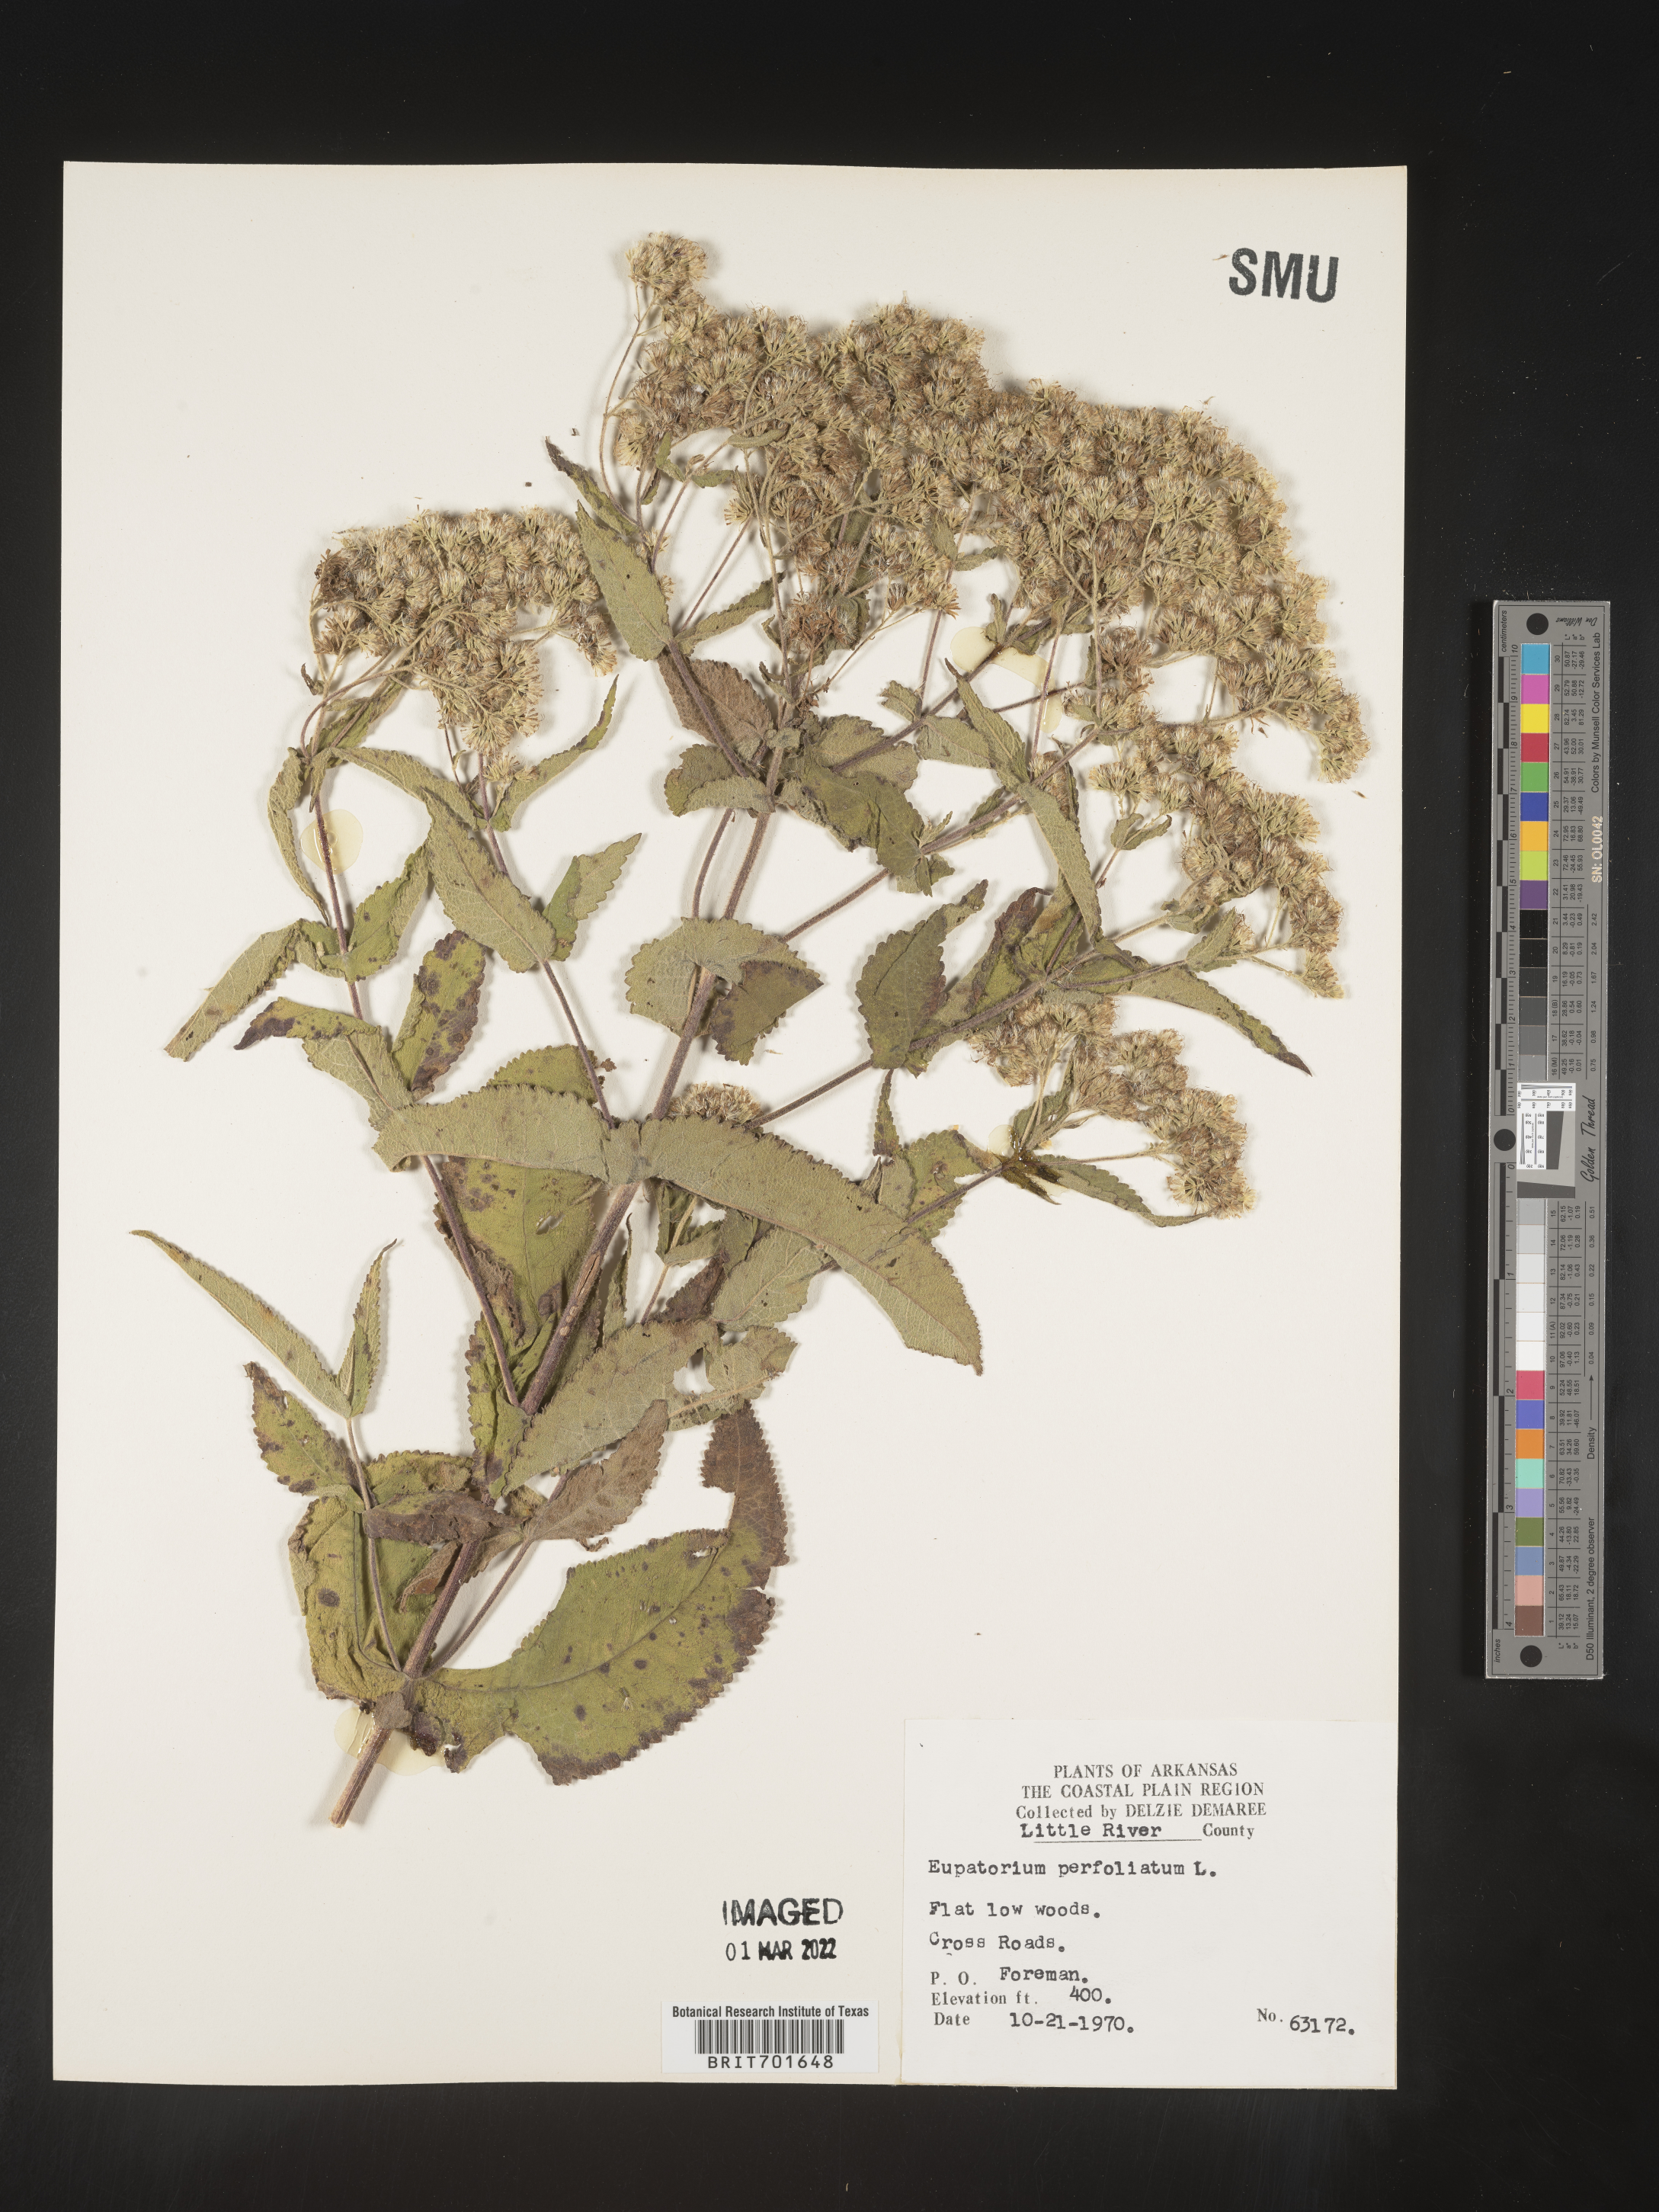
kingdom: Plantae
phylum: Tracheophyta
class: Magnoliopsida
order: Asterales
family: Asteraceae
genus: Eupatorium
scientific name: Eupatorium perfoliatum
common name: Boneset
